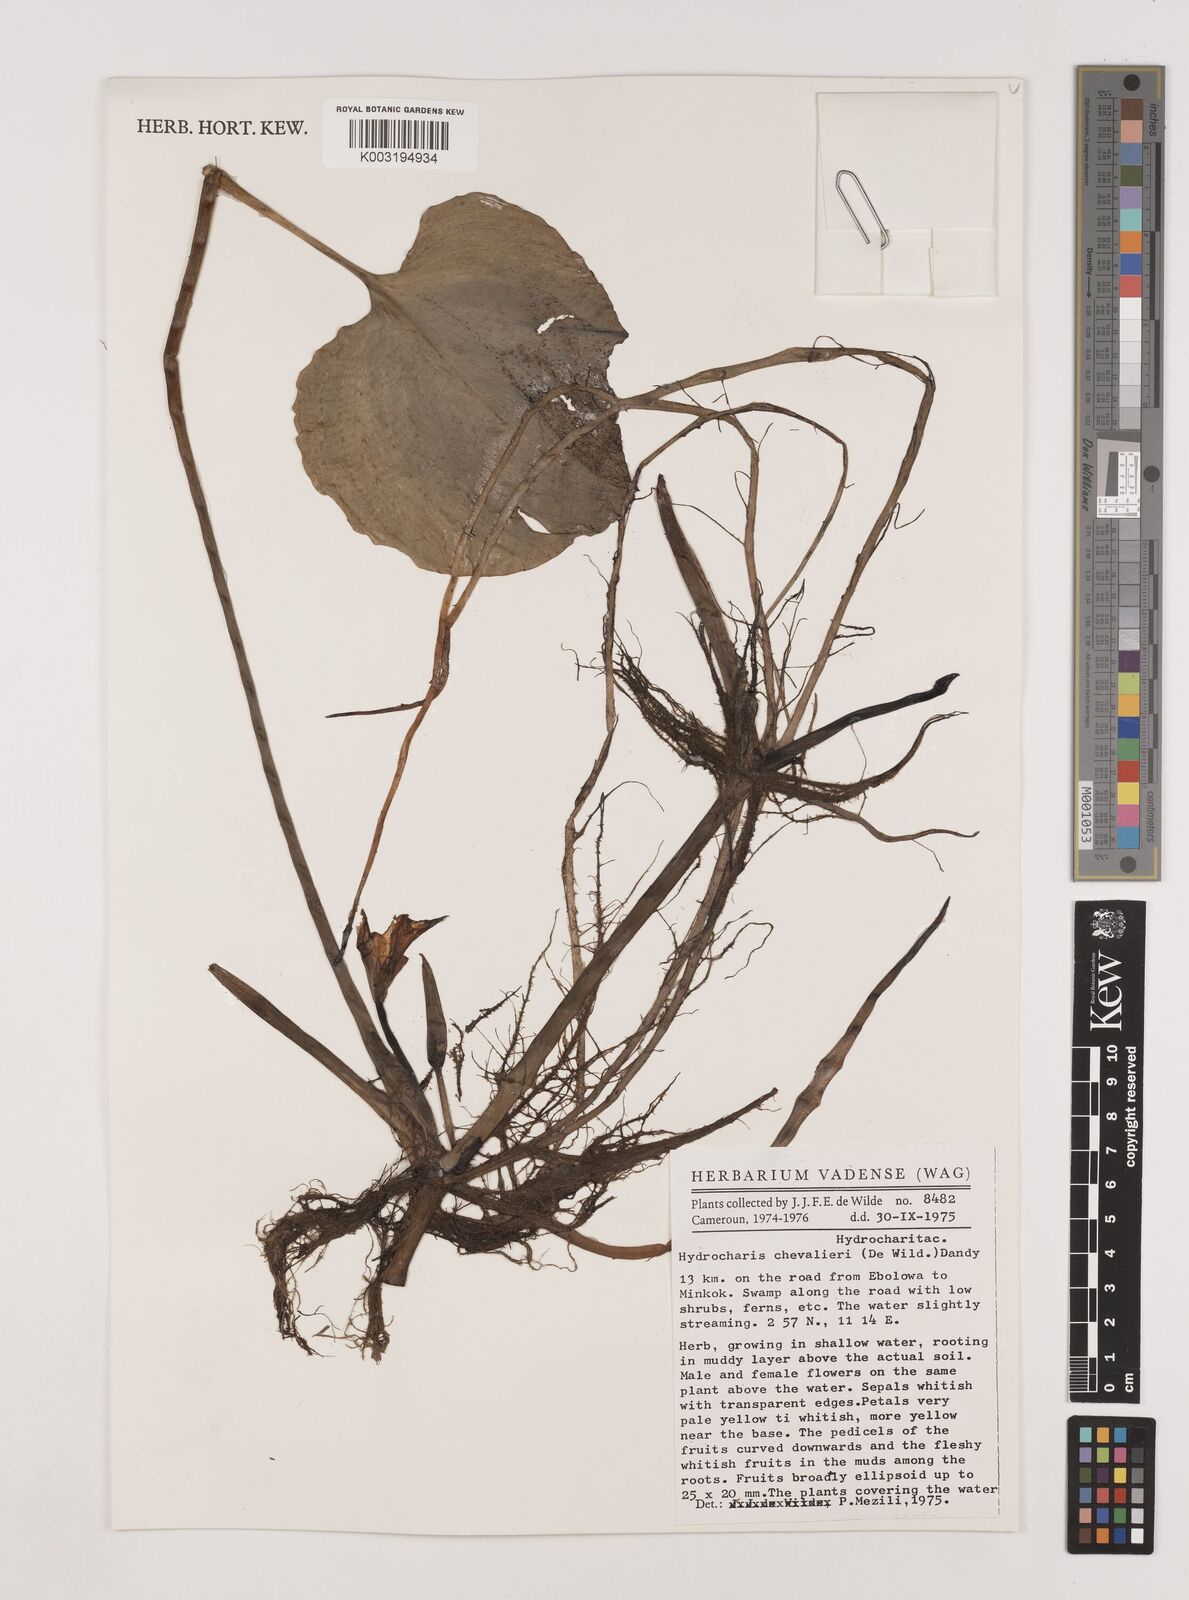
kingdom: Plantae
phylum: Tracheophyta
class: Liliopsida
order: Alismatales
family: Hydrocharitaceae
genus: Hydrocharis
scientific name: Hydrocharis chevalieri
